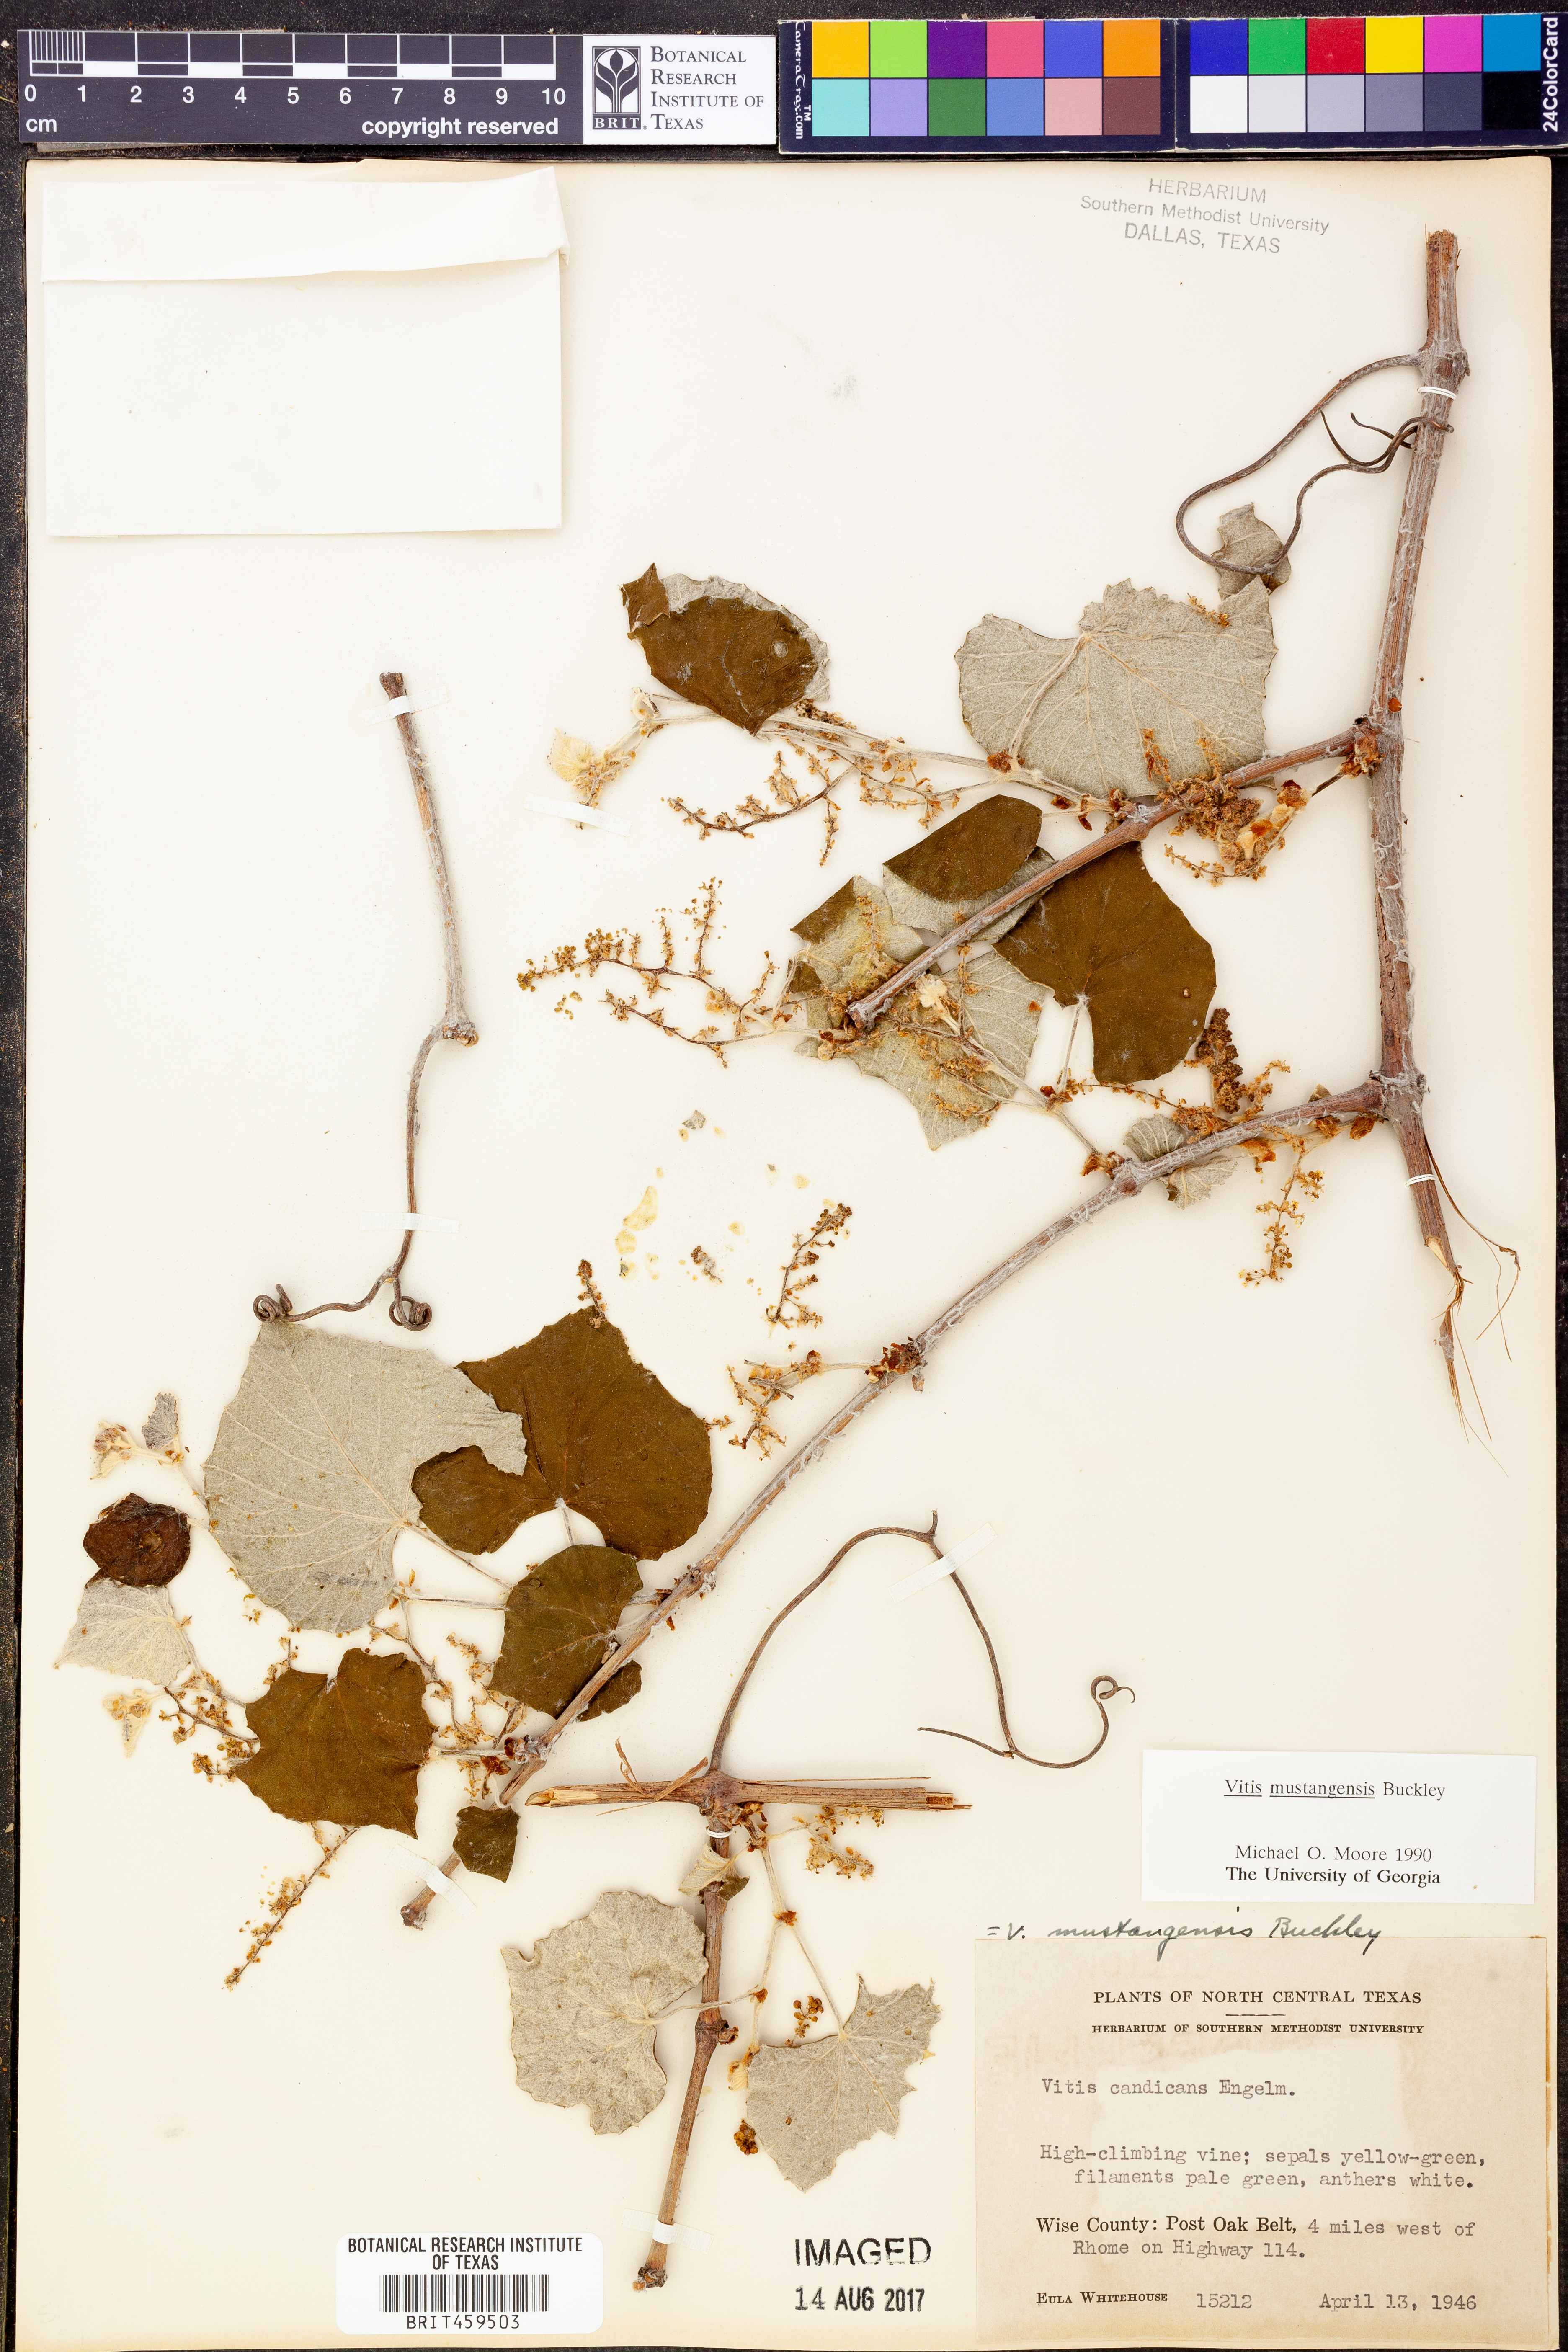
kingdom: Plantae
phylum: Tracheophyta
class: Magnoliopsida
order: Vitales
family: Vitaceae
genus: Vitis
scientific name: Vitis mustangensis
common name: Mustang grape
